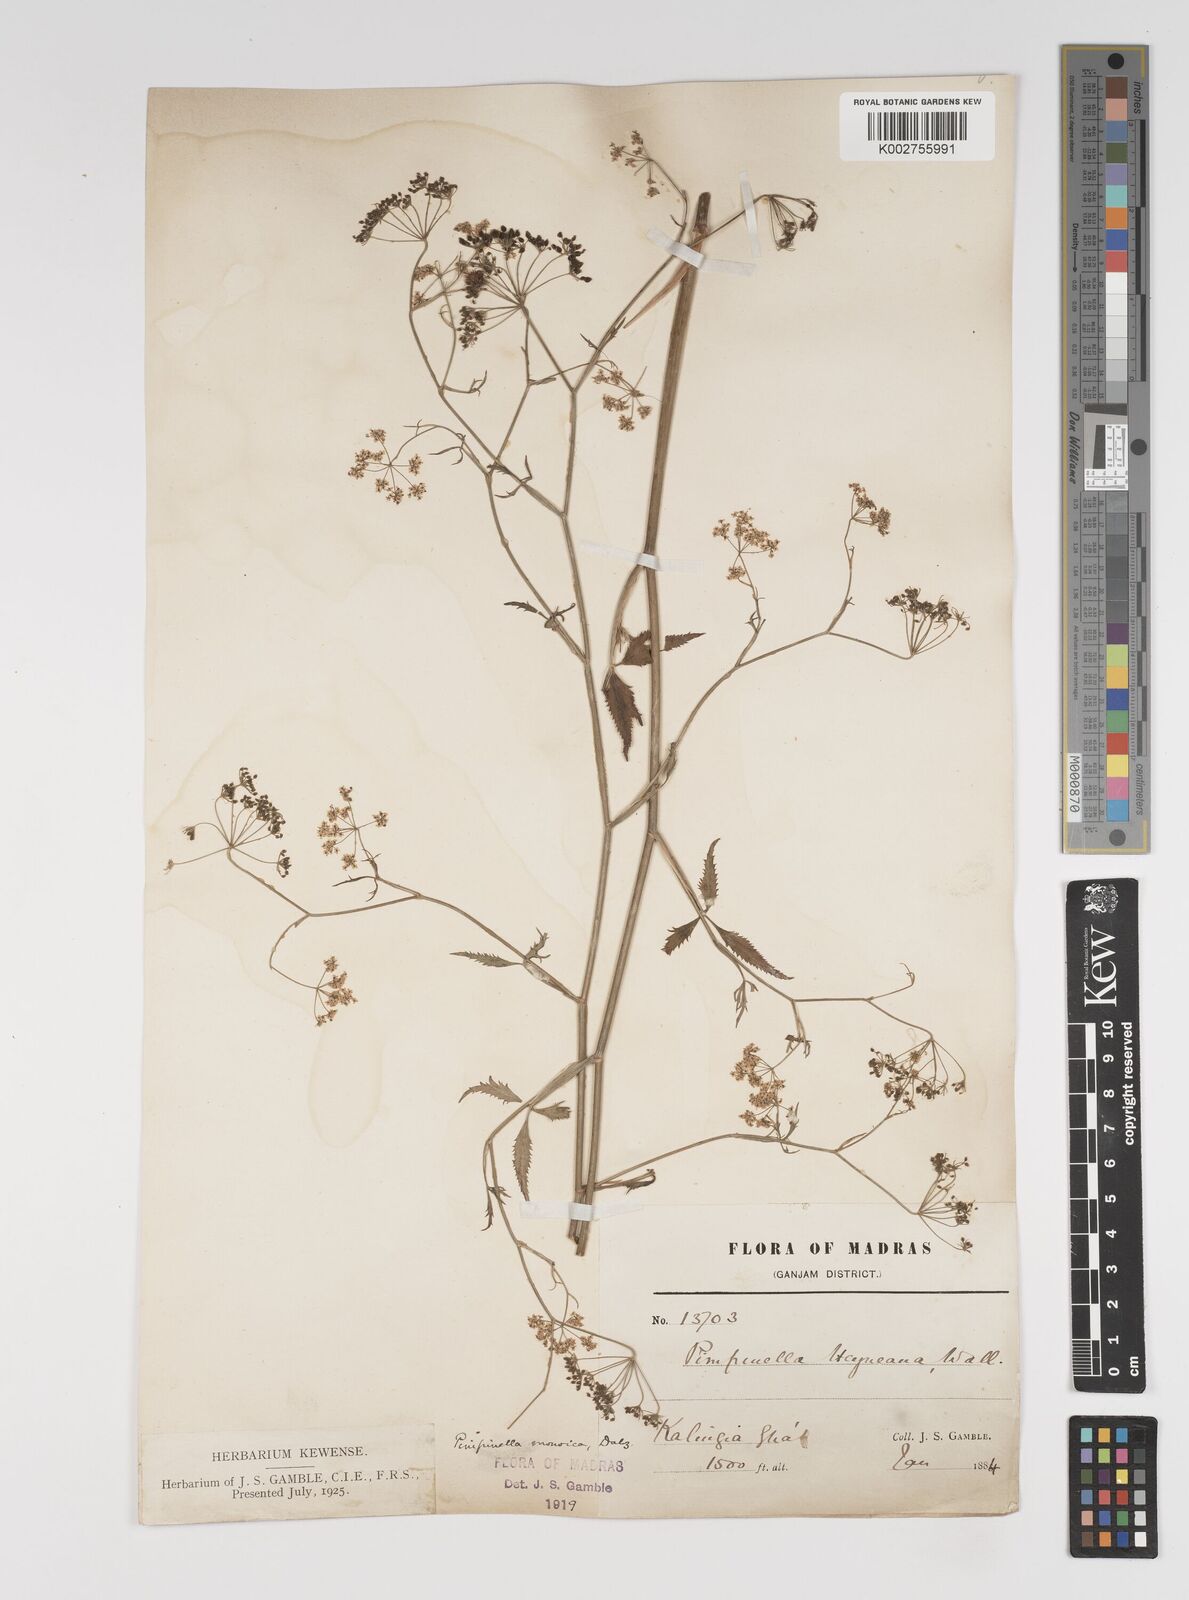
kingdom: Plantae
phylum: Tracheophyta
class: Magnoliopsida
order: Apiales
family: Apiaceae
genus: Pimpinella
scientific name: Pimpinella wallichiana
